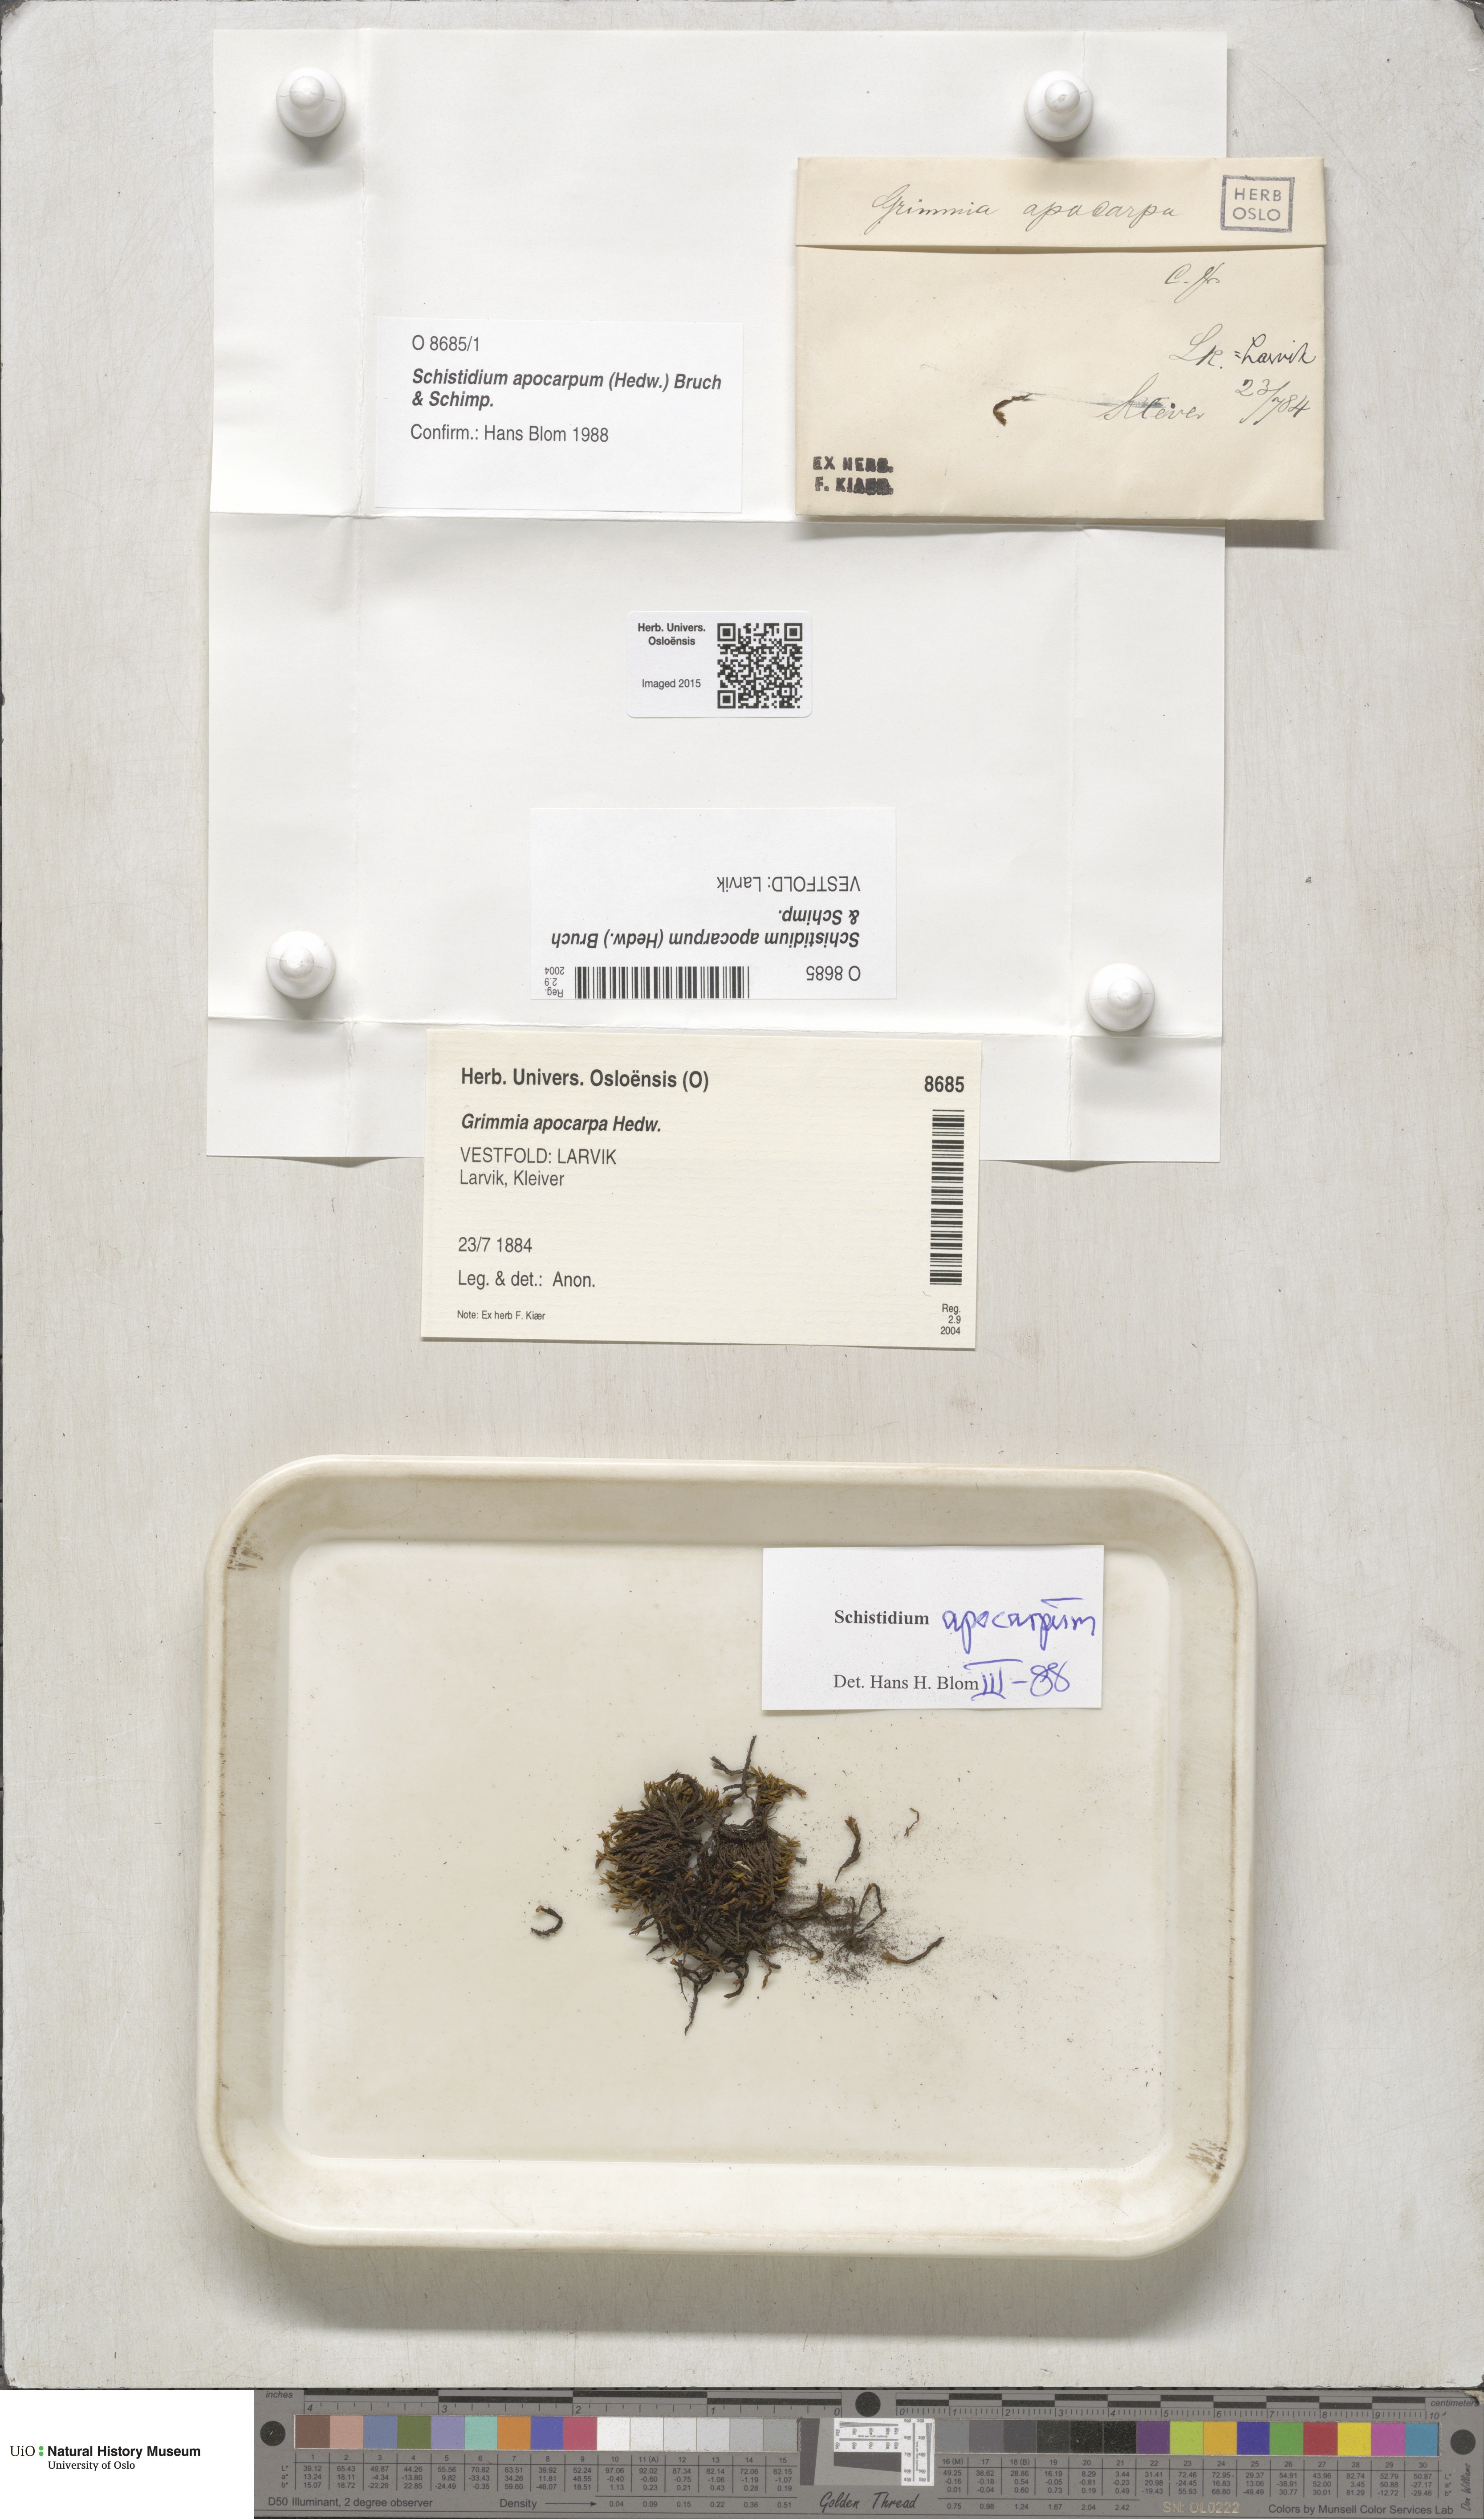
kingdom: Plantae
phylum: Bryophyta
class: Bryopsida
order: Grimmiales
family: Grimmiaceae
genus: Schistidium
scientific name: Schistidium apocarpum
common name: Radiate bloom moss
